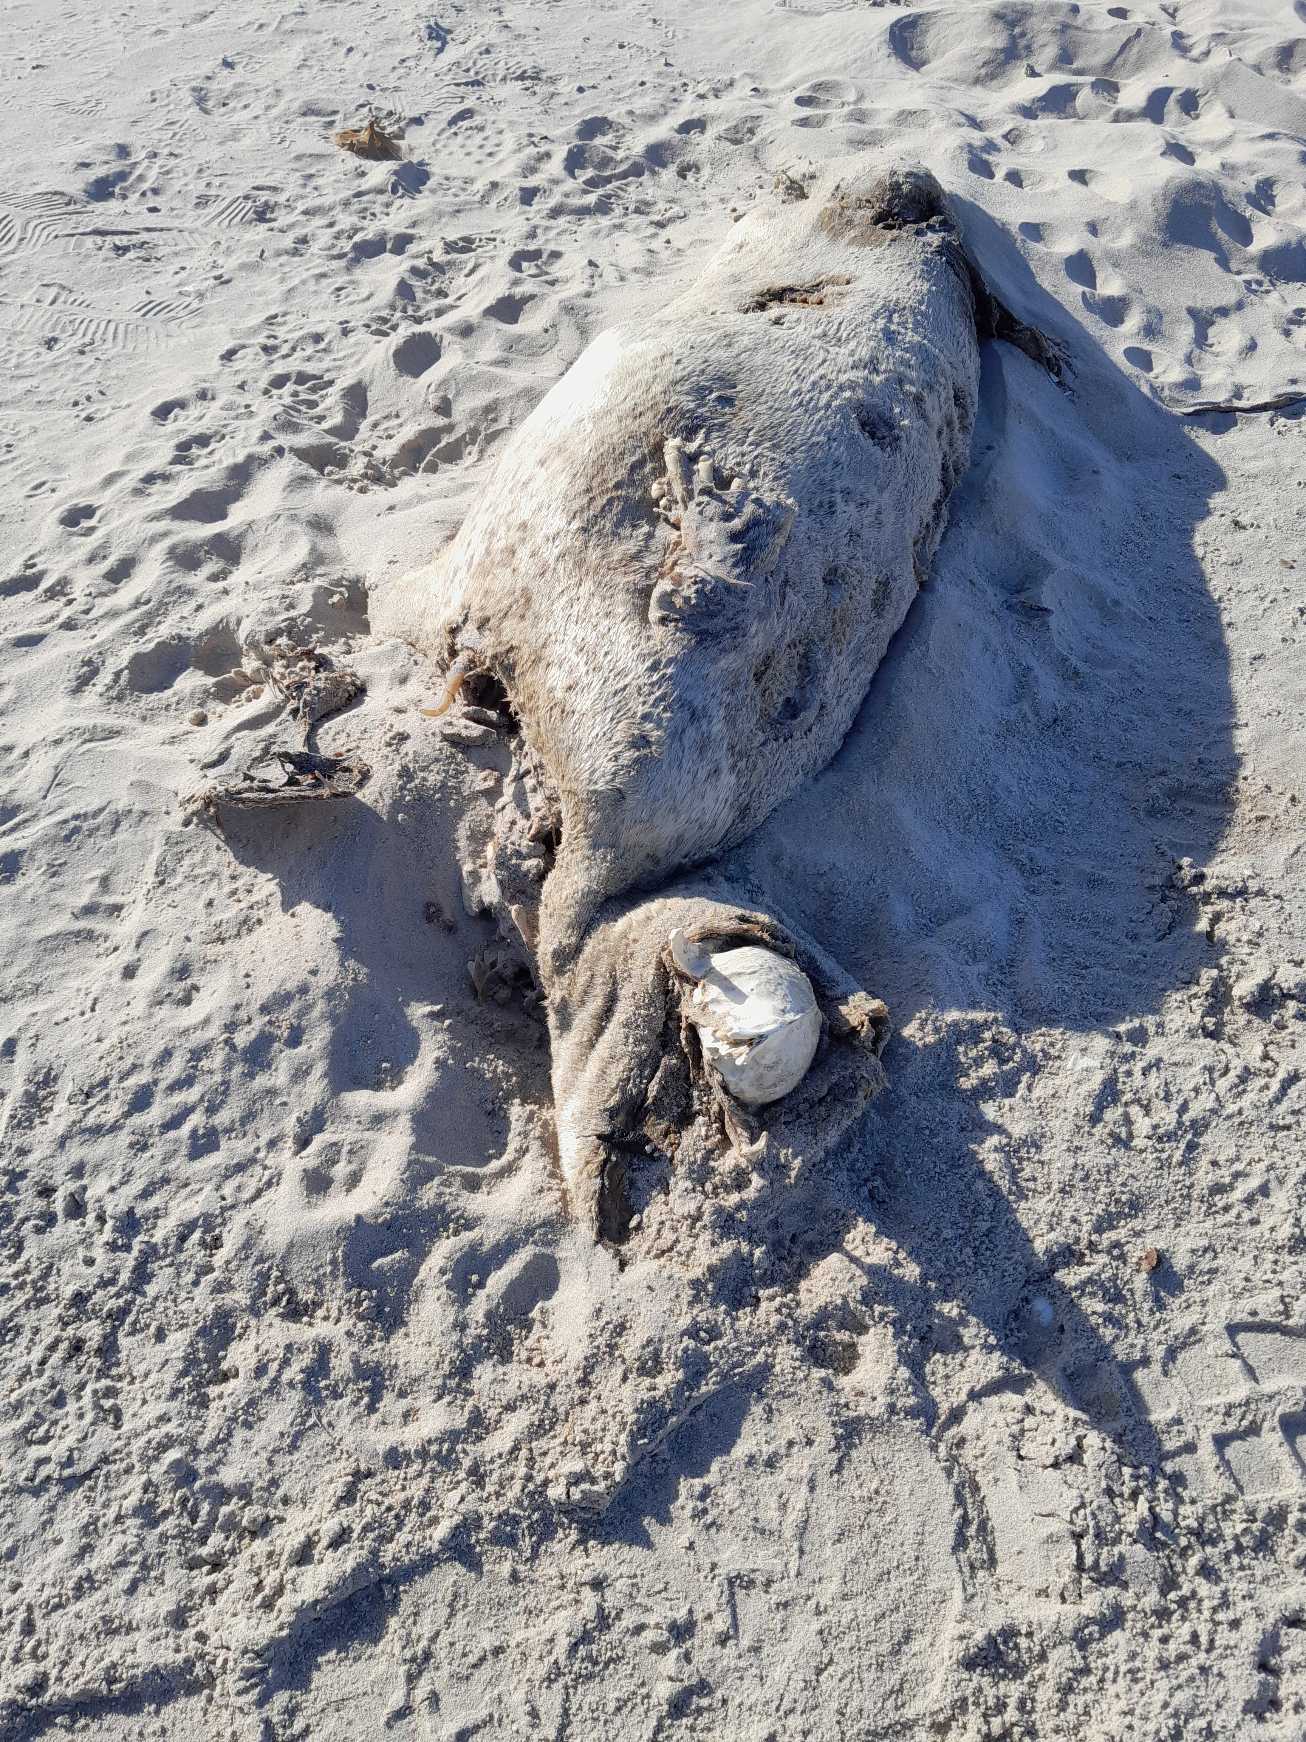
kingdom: Animalia
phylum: Chordata
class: Mammalia
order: Carnivora
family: Phocidae
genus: Phoca
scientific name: Phoca vitulina
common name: Spættet sæl
